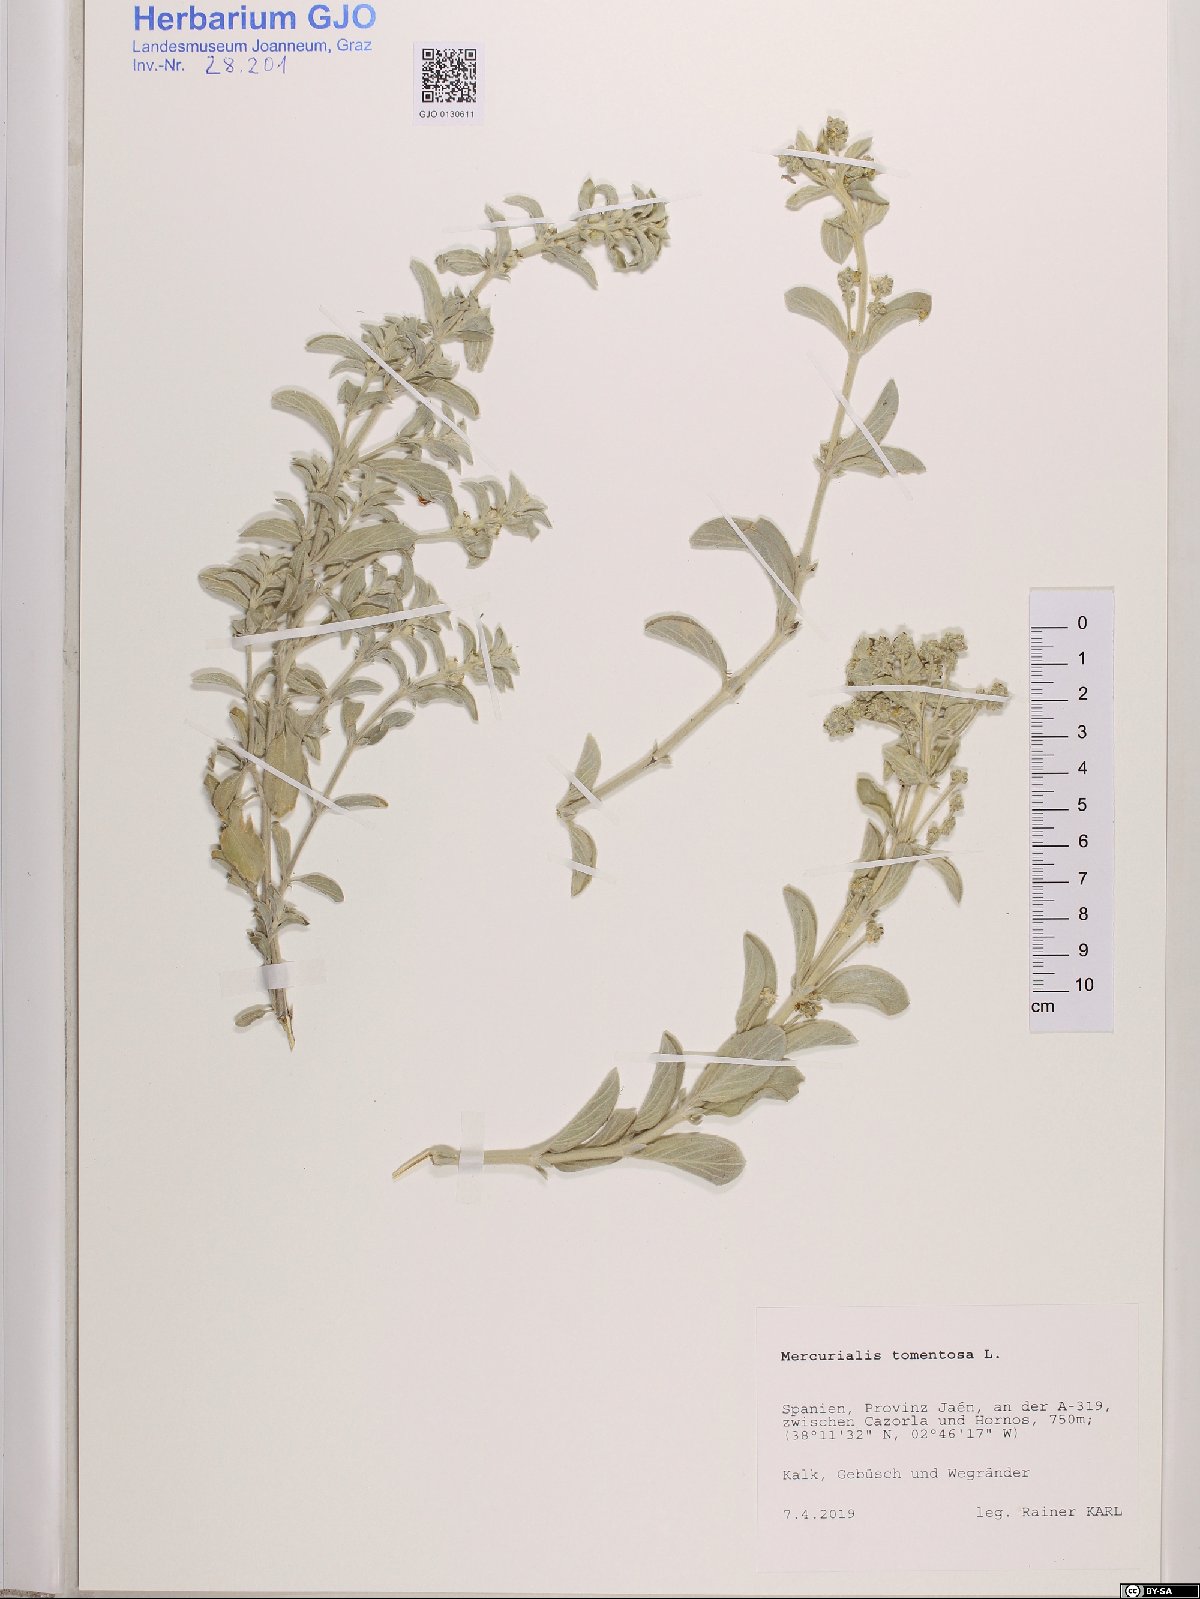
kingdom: Plantae
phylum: Tracheophyta
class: Magnoliopsida
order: Malpighiales
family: Euphorbiaceae
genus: Mercurialis
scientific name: Mercurialis tomentosa
